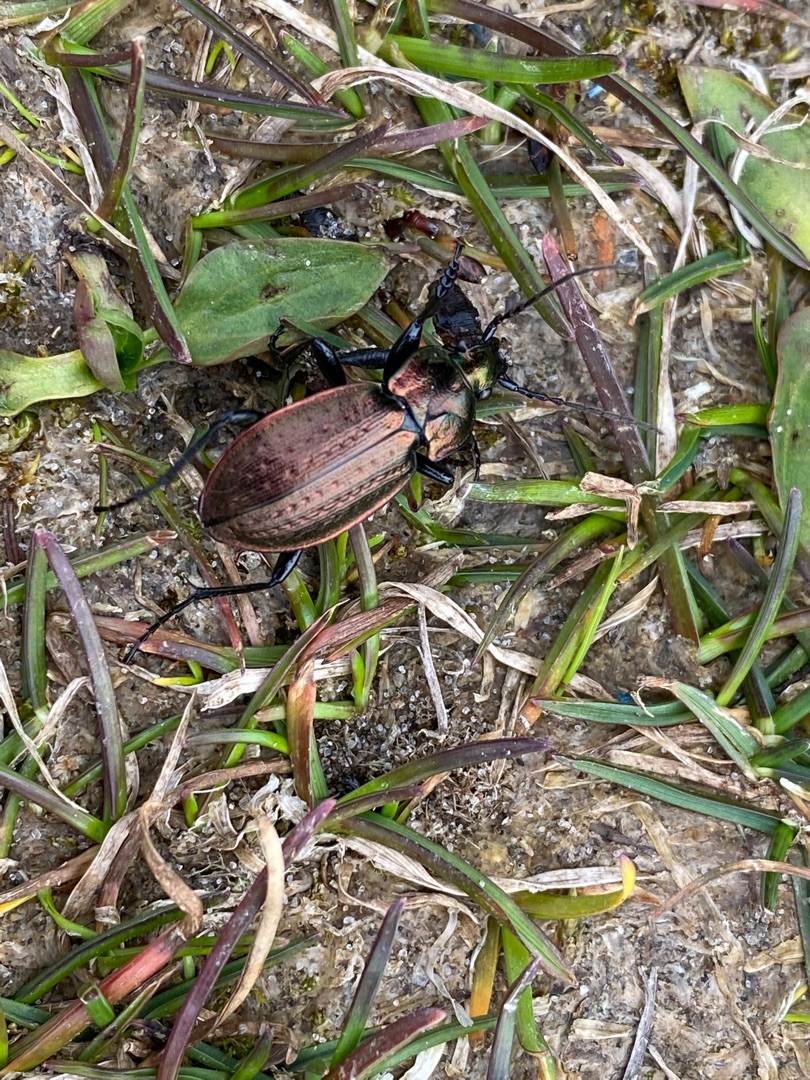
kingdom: Animalia
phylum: Arthropoda
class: Insecta
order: Coleoptera
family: Carabidae
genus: Carabus
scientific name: Carabus arvensis
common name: Lyngløber
